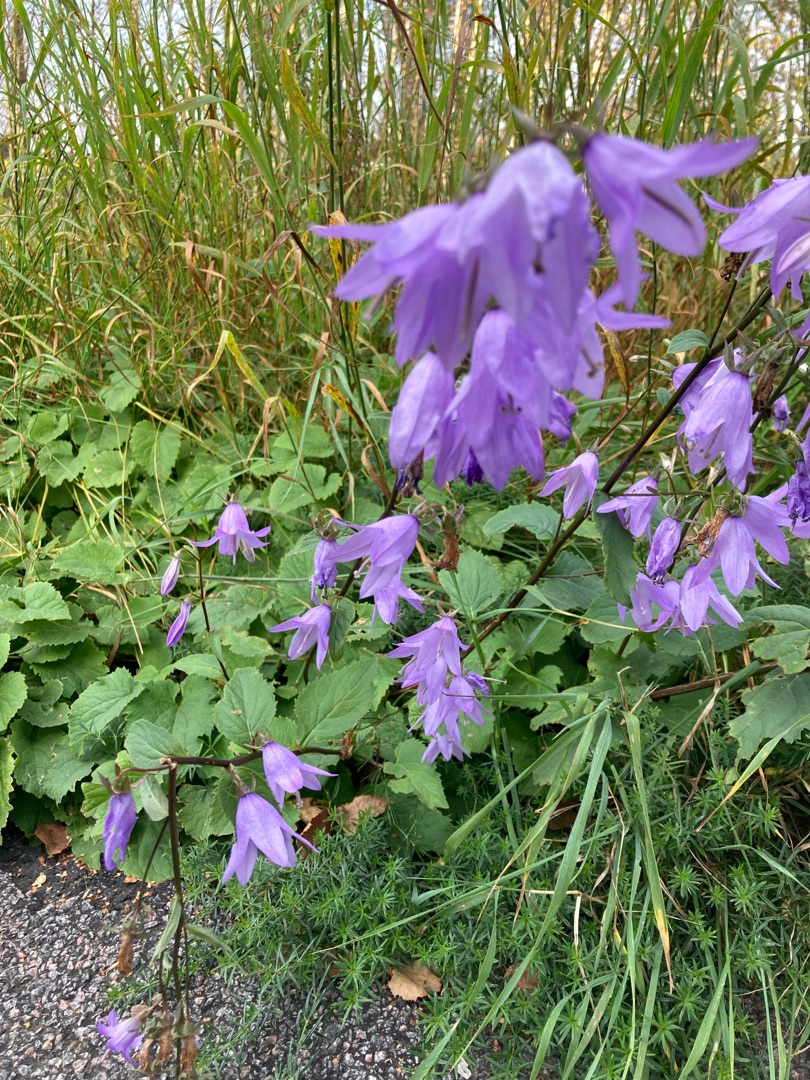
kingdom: Plantae
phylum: Tracheophyta
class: Magnoliopsida
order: Asterales
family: Campanulaceae
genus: Campanula
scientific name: Campanula rapunculoides
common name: Ensidig klokke
